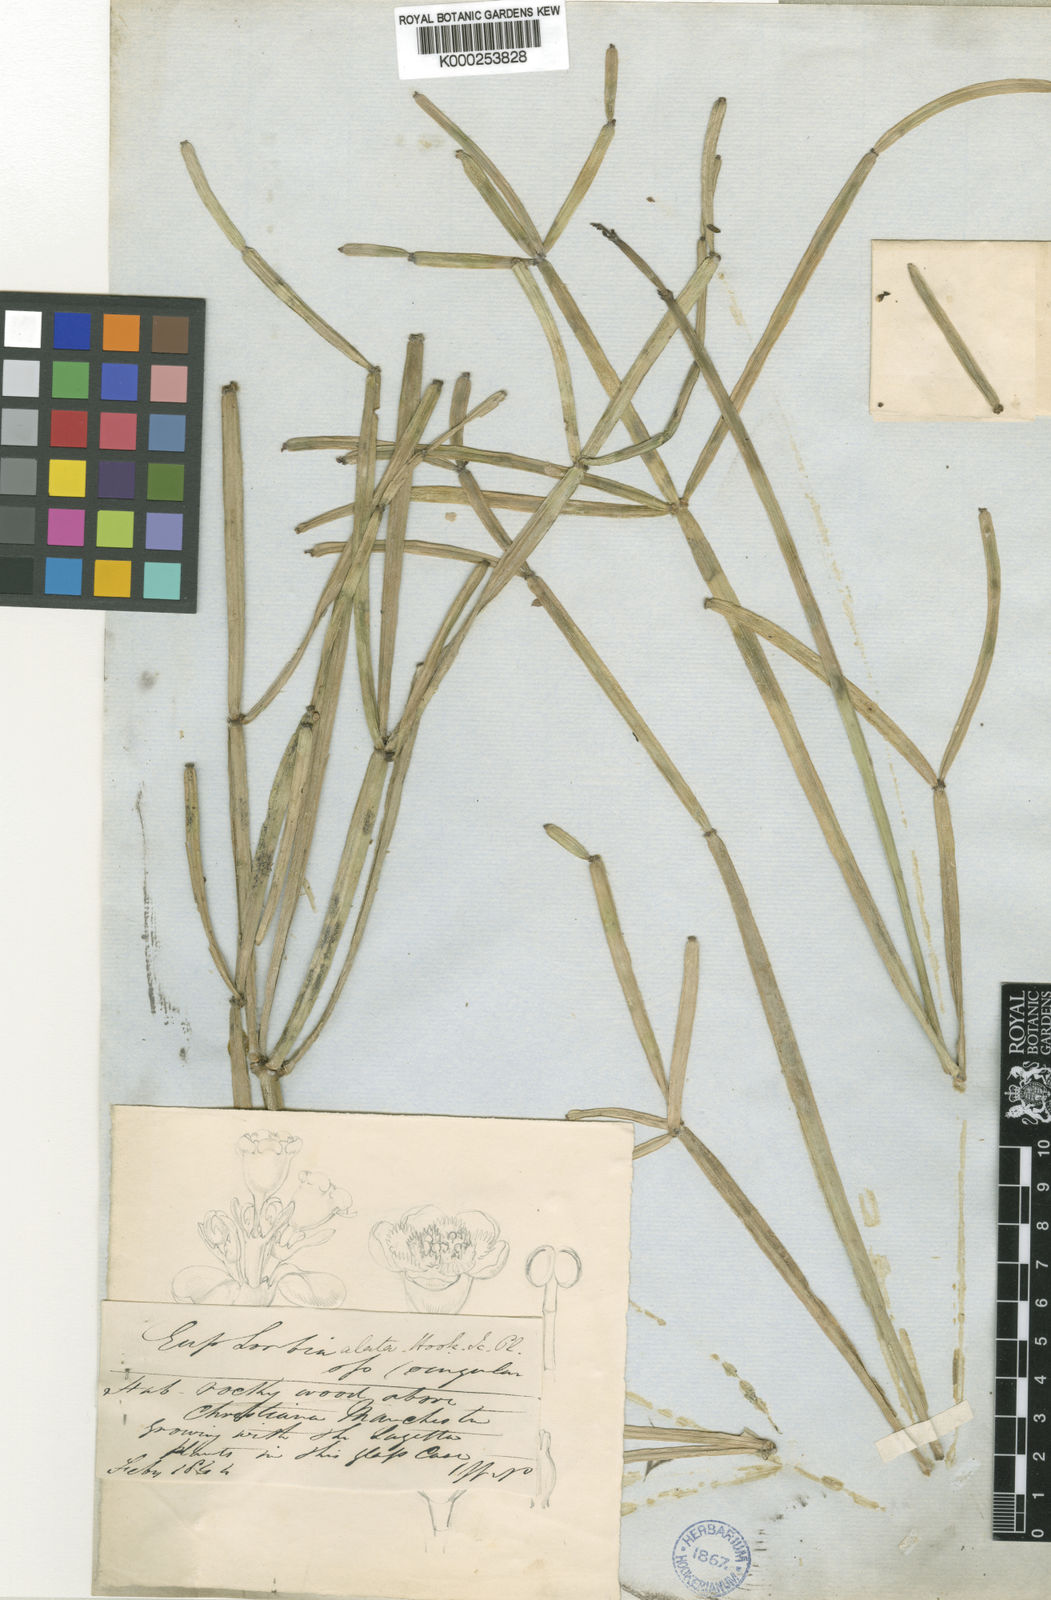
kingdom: Plantae
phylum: Tracheophyta
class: Magnoliopsida
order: Malpighiales
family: Euphorbiaceae
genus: Euphorbia
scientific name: Euphorbia alata
